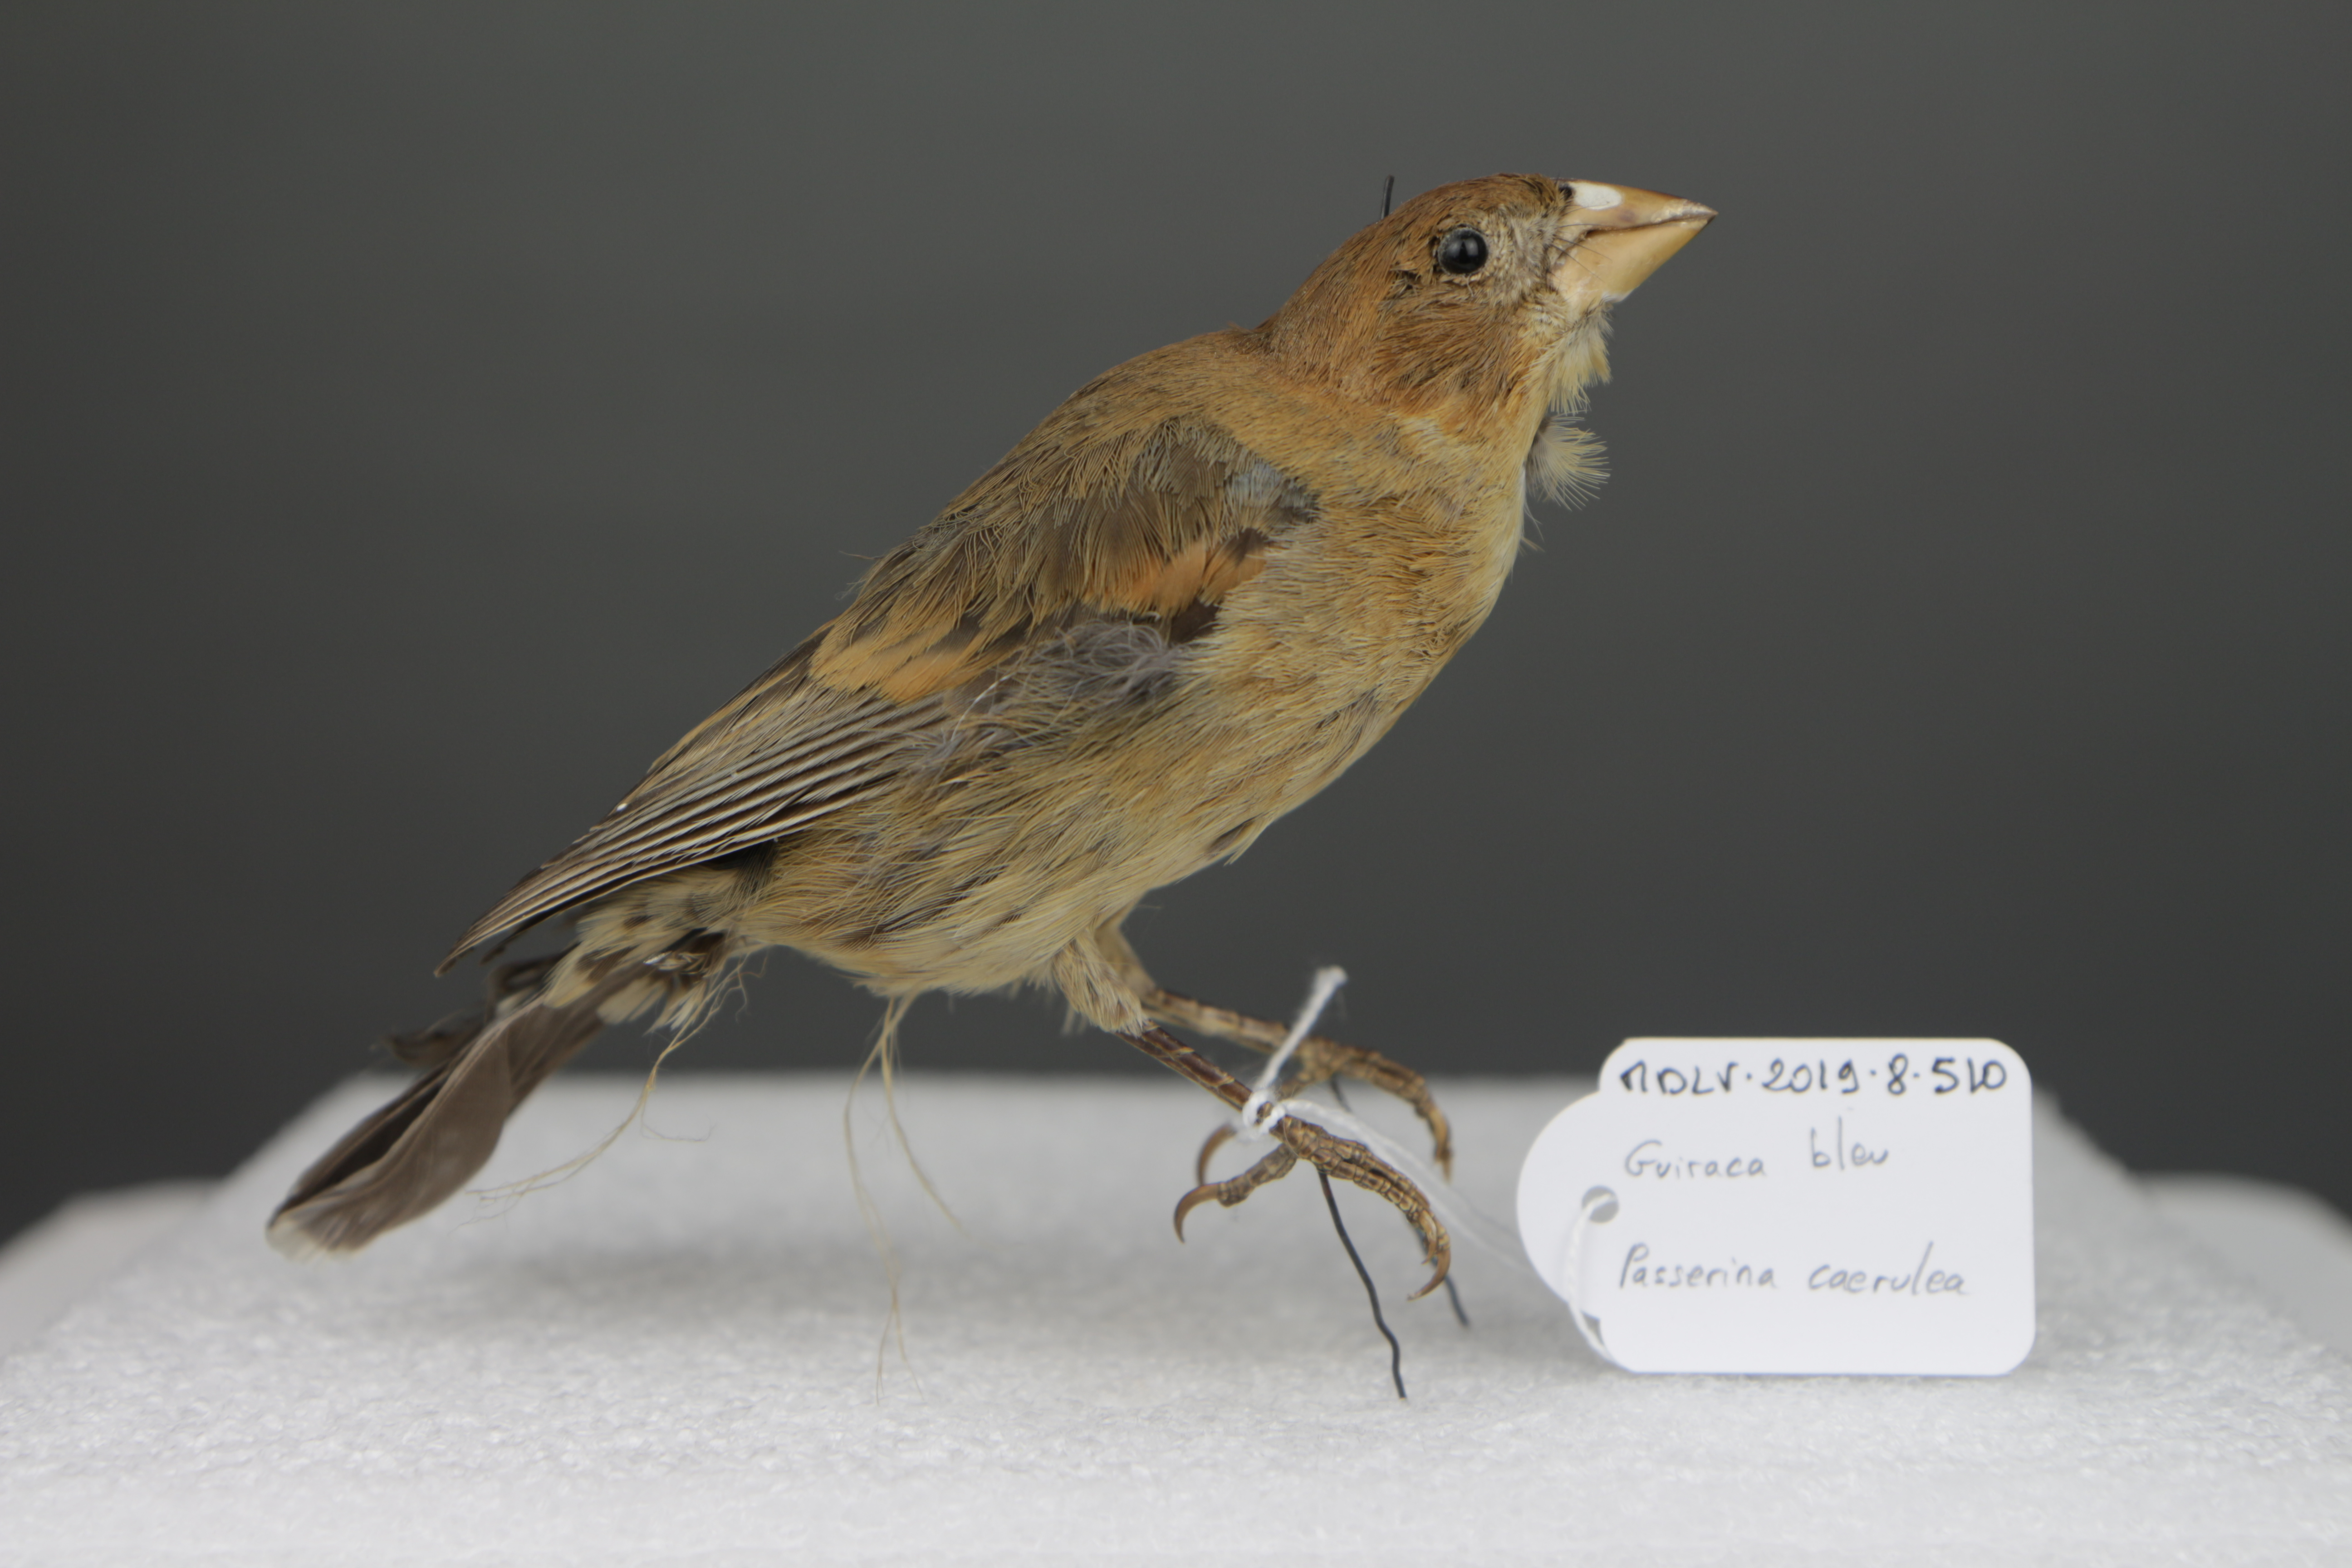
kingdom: Animalia
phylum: Chordata
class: Aves
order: Passeriformes
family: Cardinalidae
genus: Passerina
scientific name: Passerina caerulea
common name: Blue grosbeak
